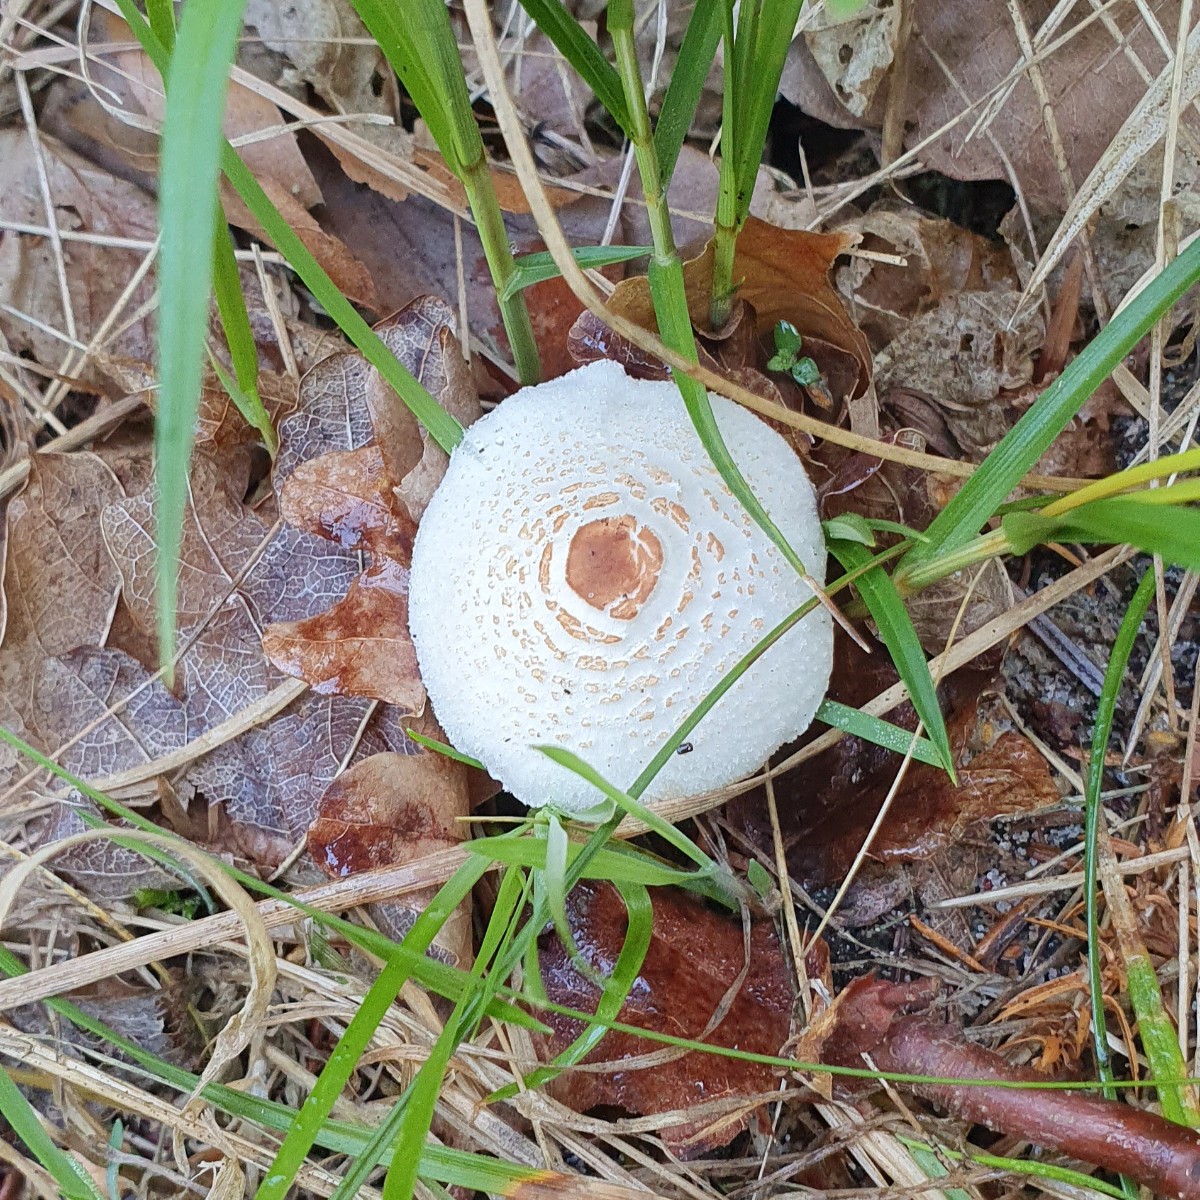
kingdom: Fungi
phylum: Basidiomycota
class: Agaricomycetes
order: Agaricales
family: Agaricaceae
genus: Lepiota
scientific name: Lepiota cristata
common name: stinkende parasolhat
